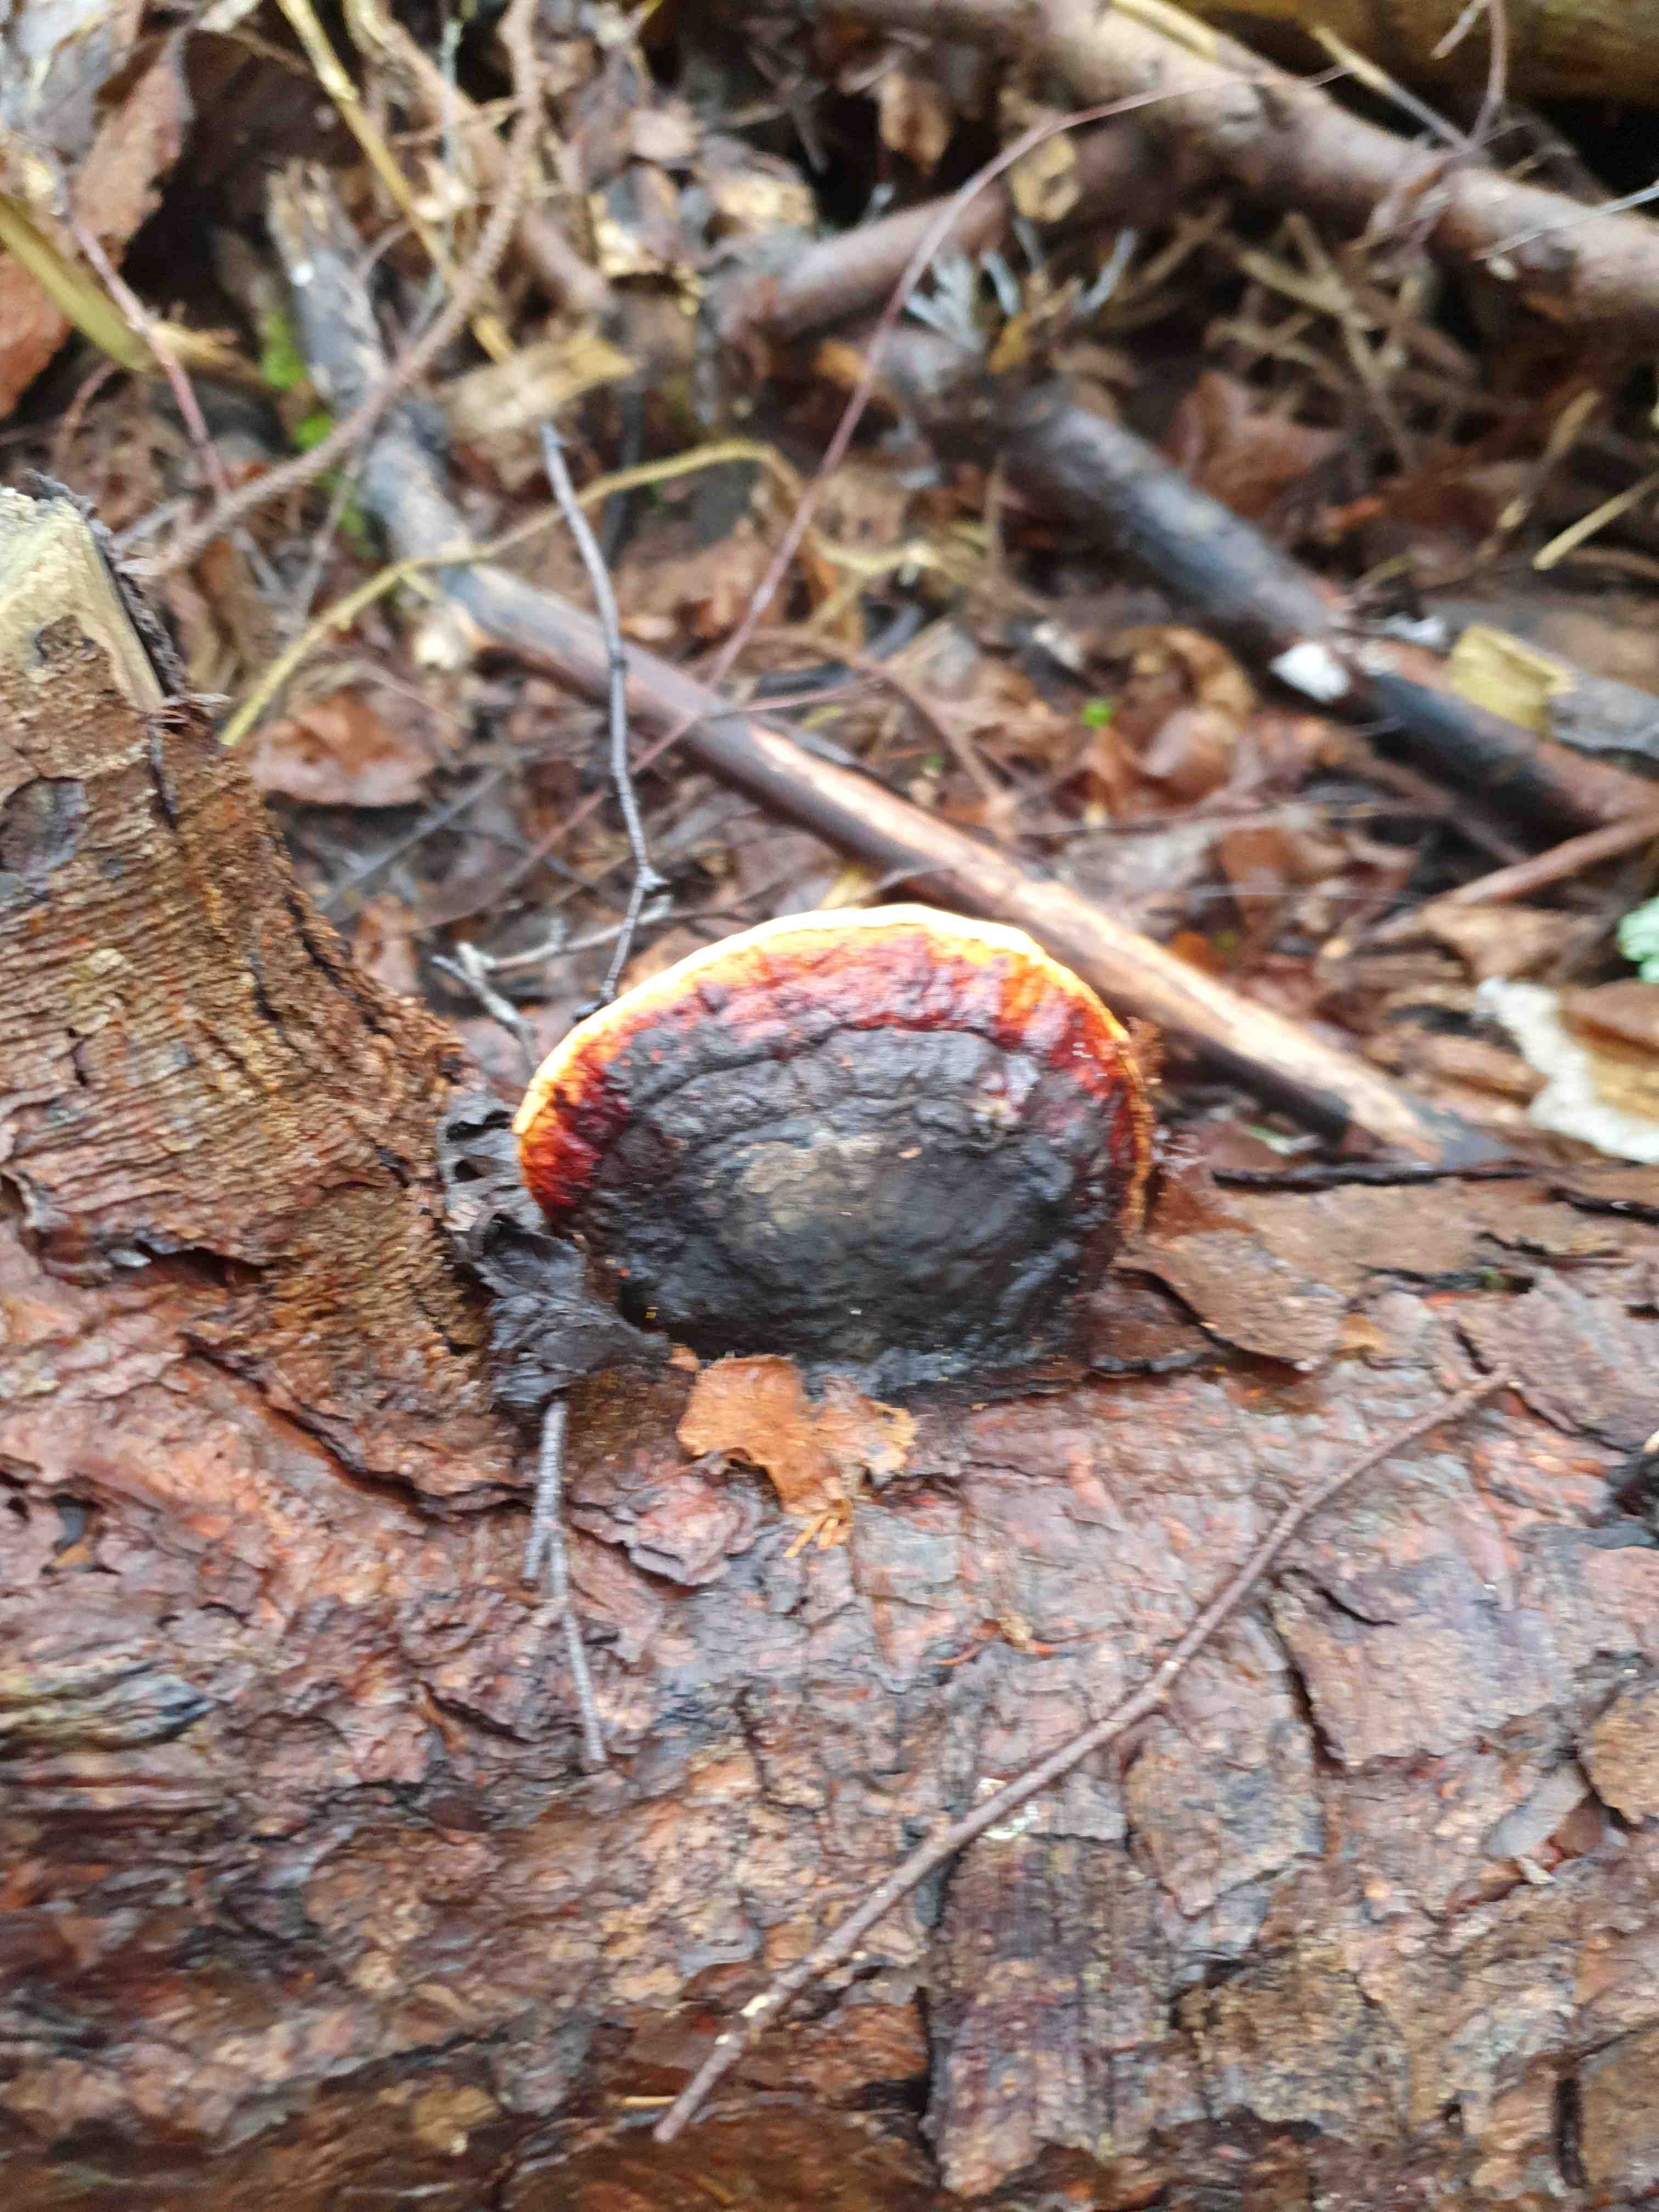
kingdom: Fungi
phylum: Basidiomycota
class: Agaricomycetes
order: Polyporales
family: Fomitopsidaceae
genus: Fomitopsis
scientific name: Fomitopsis pinicola
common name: randbæltet hovporesvamp
